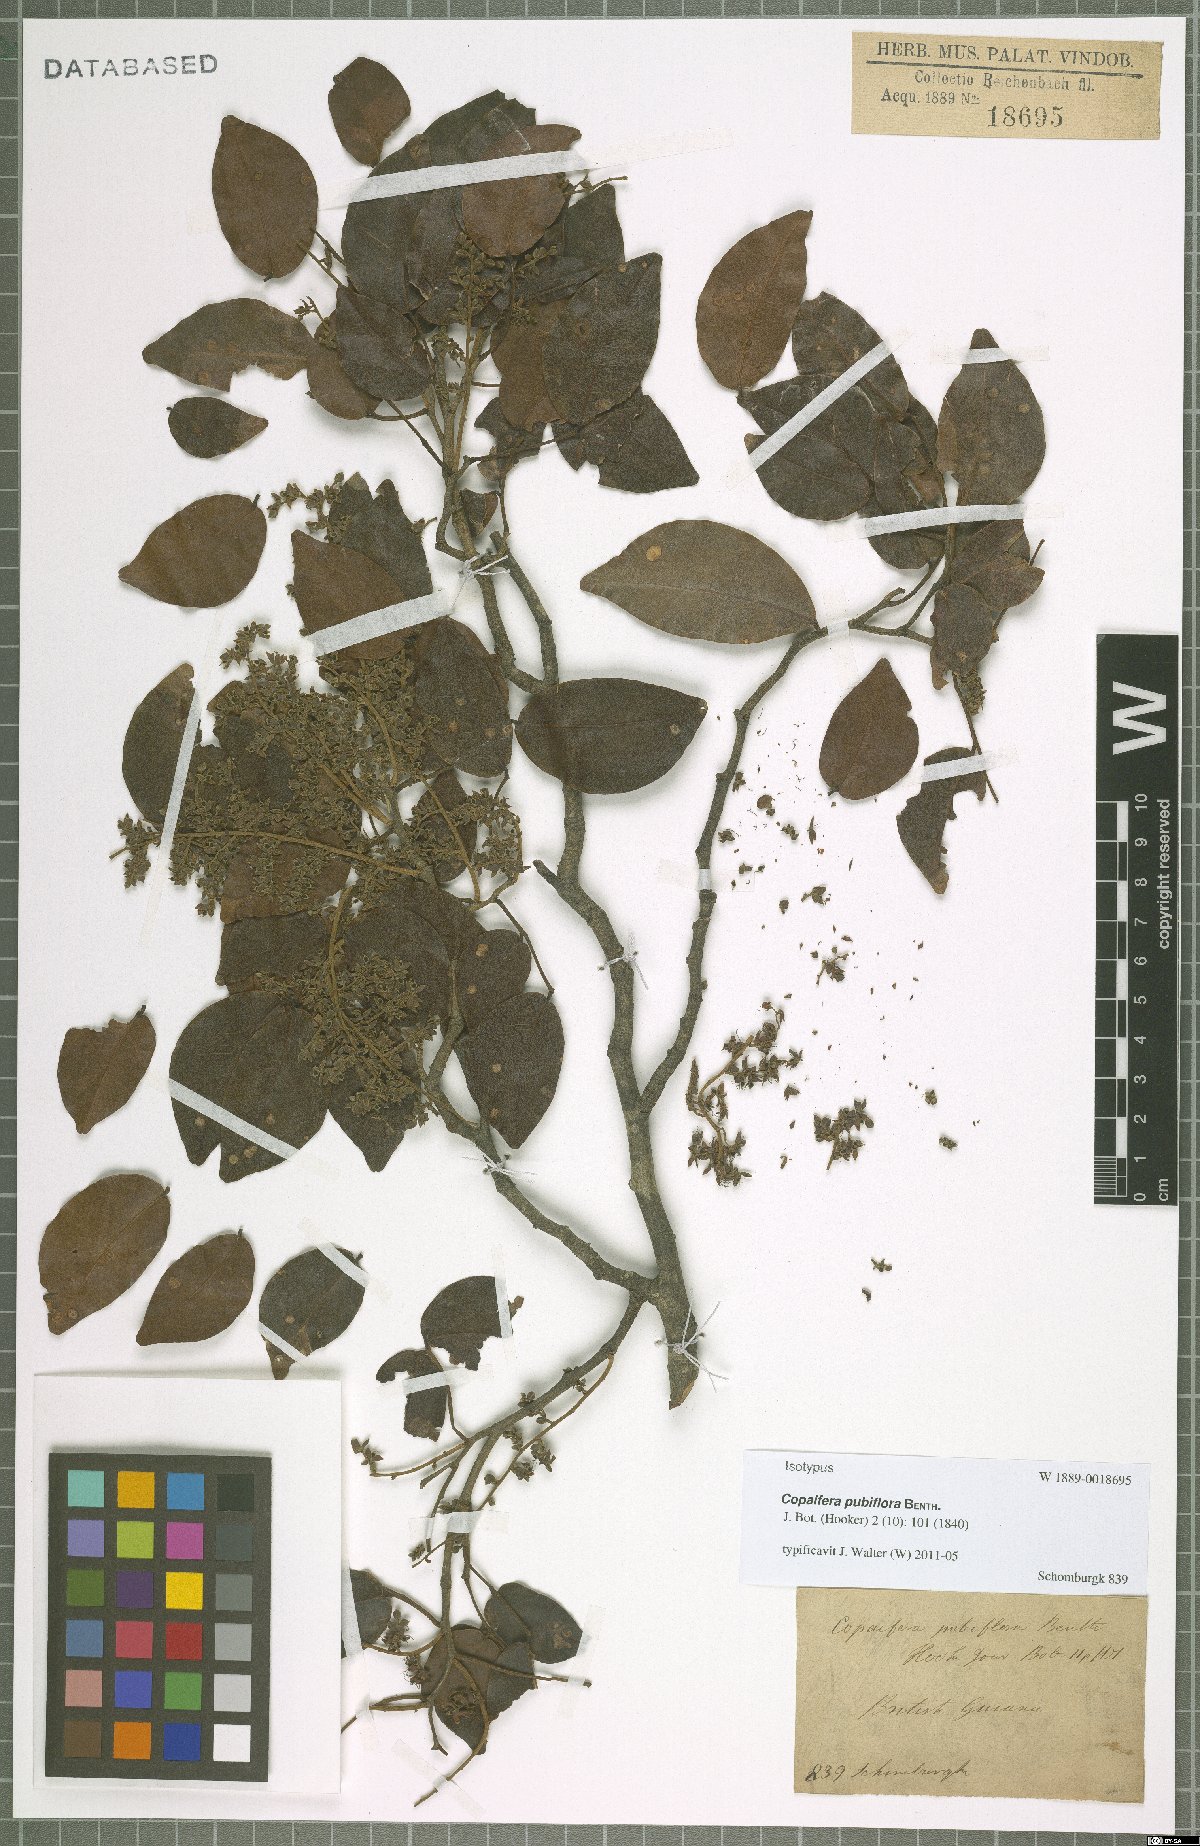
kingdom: Plantae
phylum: Tracheophyta
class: Magnoliopsida
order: Fabales
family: Fabaceae
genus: Copaifera
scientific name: Copaifera pubiflora
